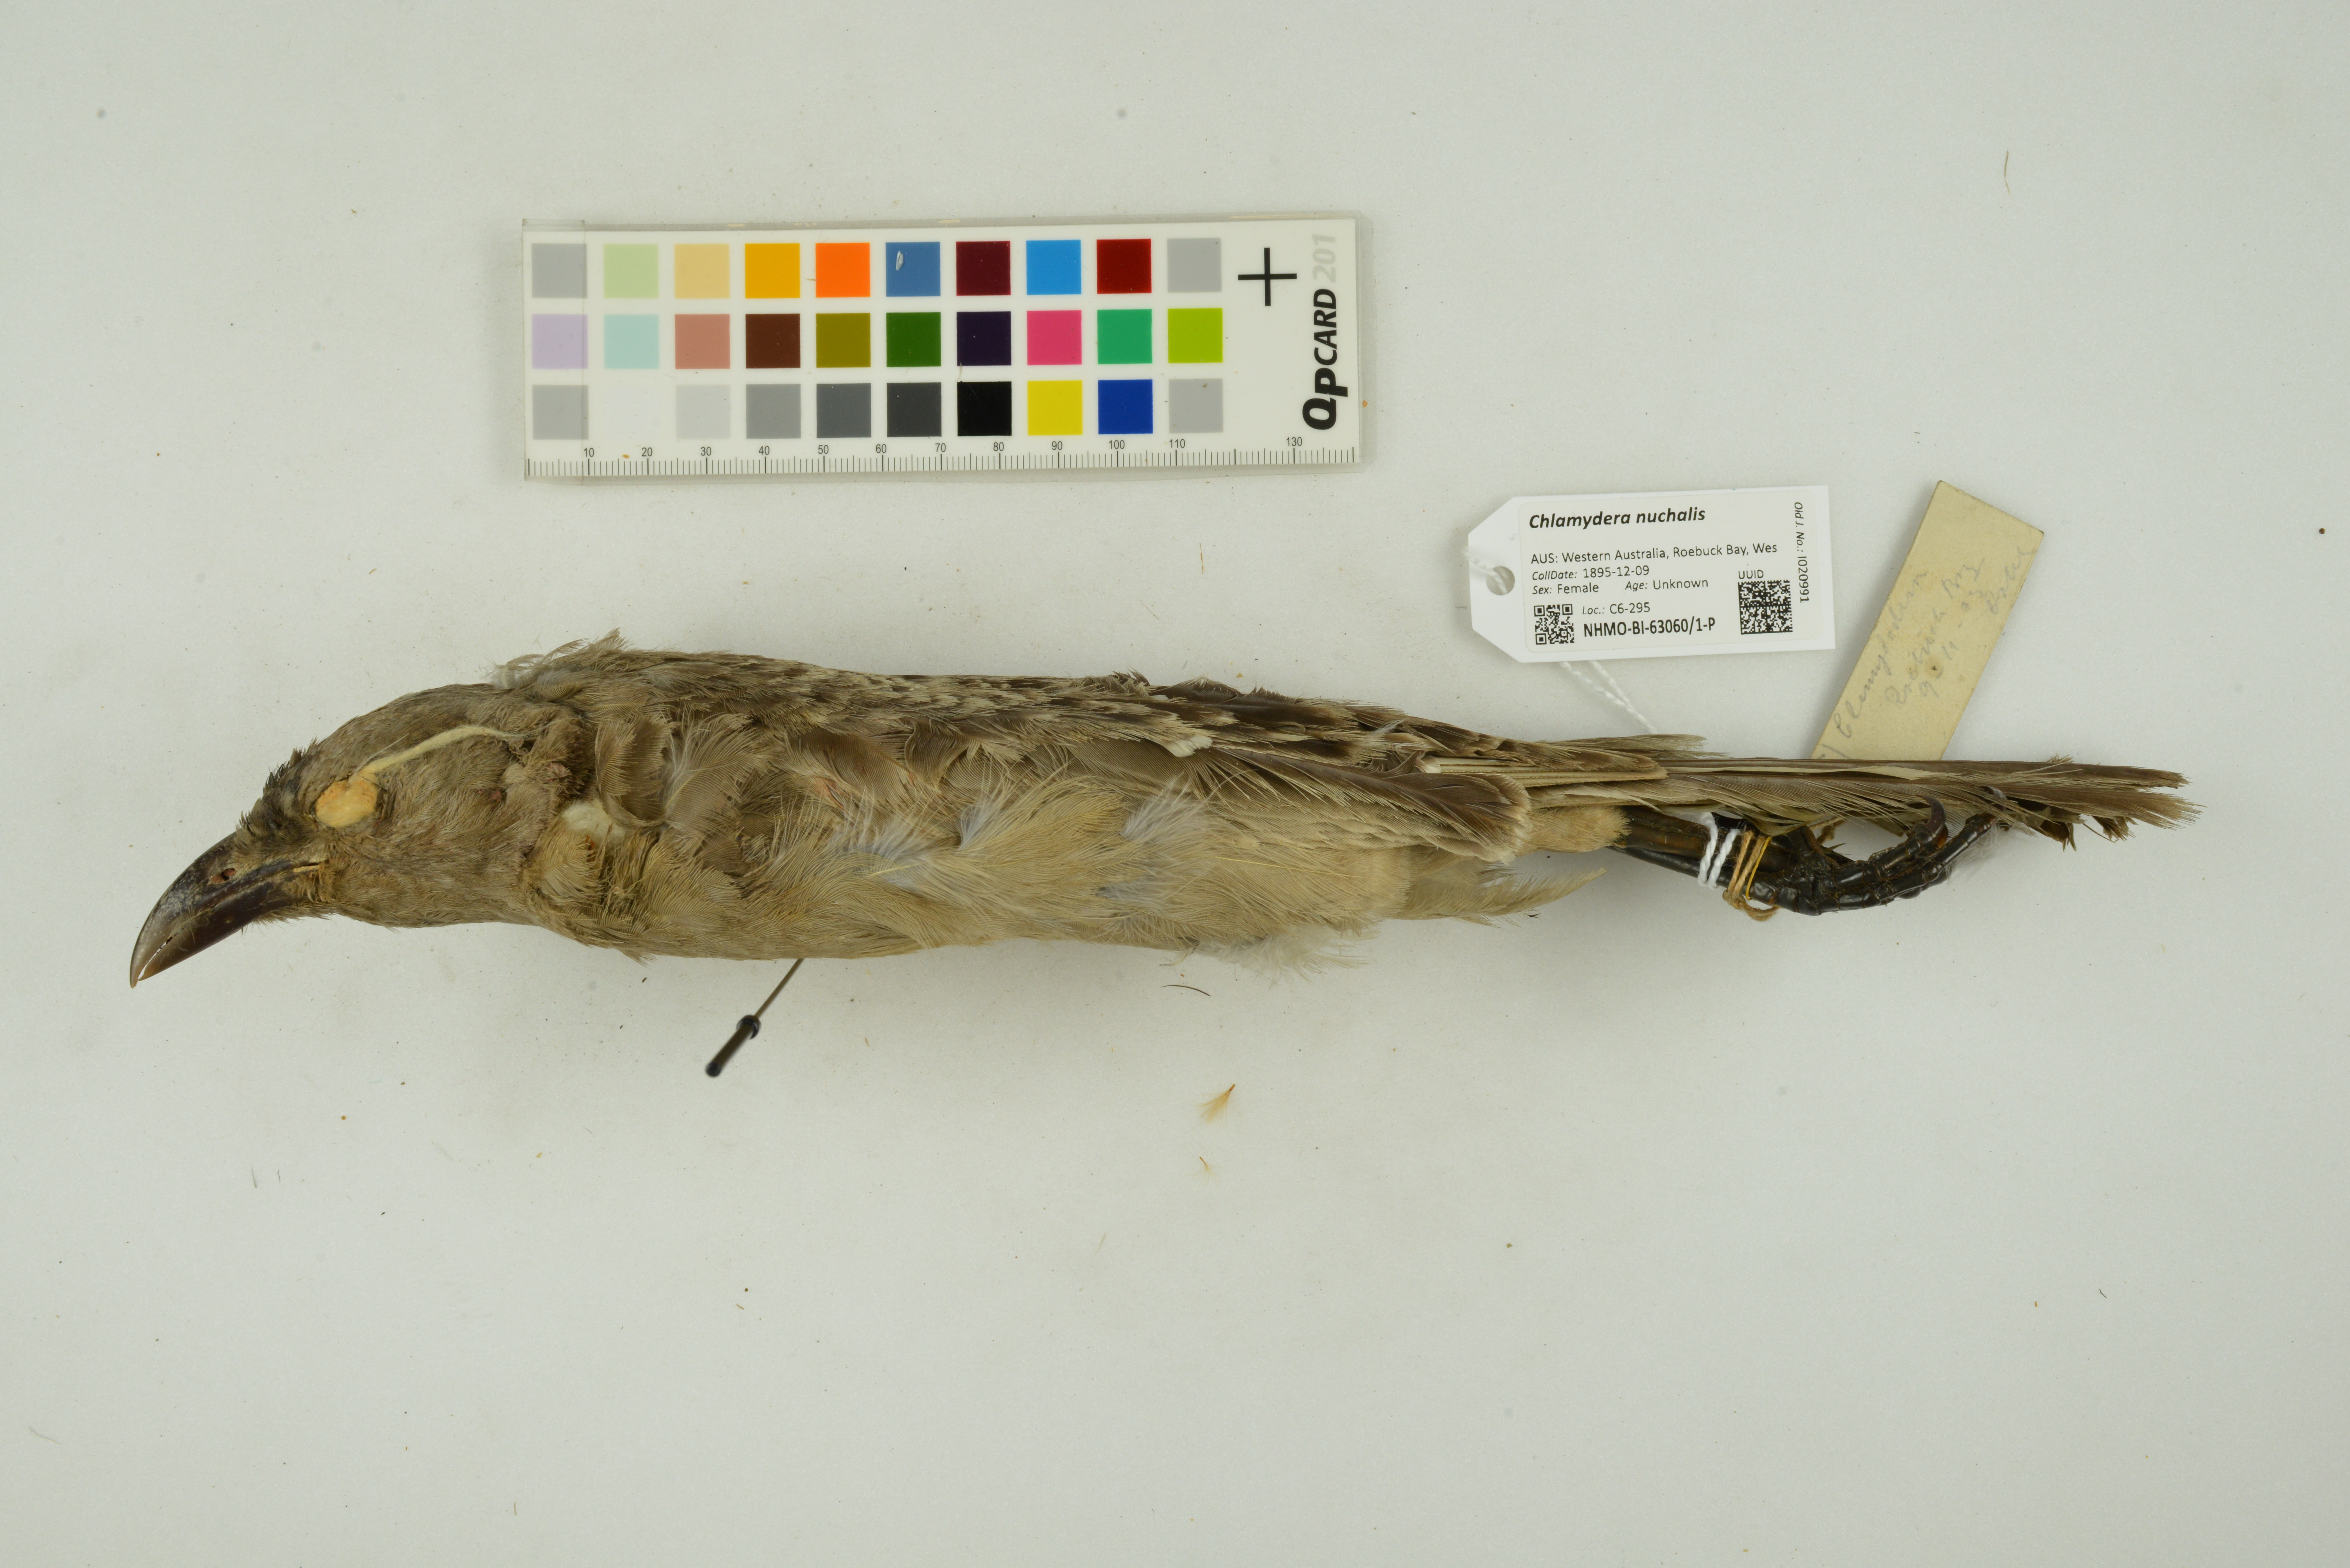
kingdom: Animalia
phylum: Chordata
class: Aves
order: Passeriformes
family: Ptilonorhynchidae
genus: Chlamydera
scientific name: Chlamydera nuchalis
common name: Great bowerbird
